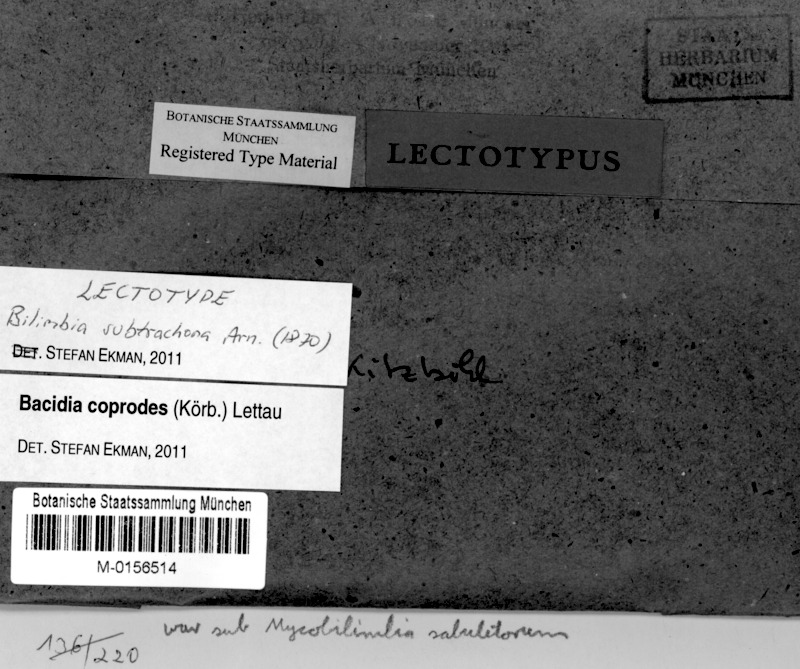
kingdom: Fungi
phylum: Ascomycota
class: Lecanoromycetes
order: Lecanorales
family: Ramalinaceae
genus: Toniniopsis
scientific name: Toniniopsis coprodes
